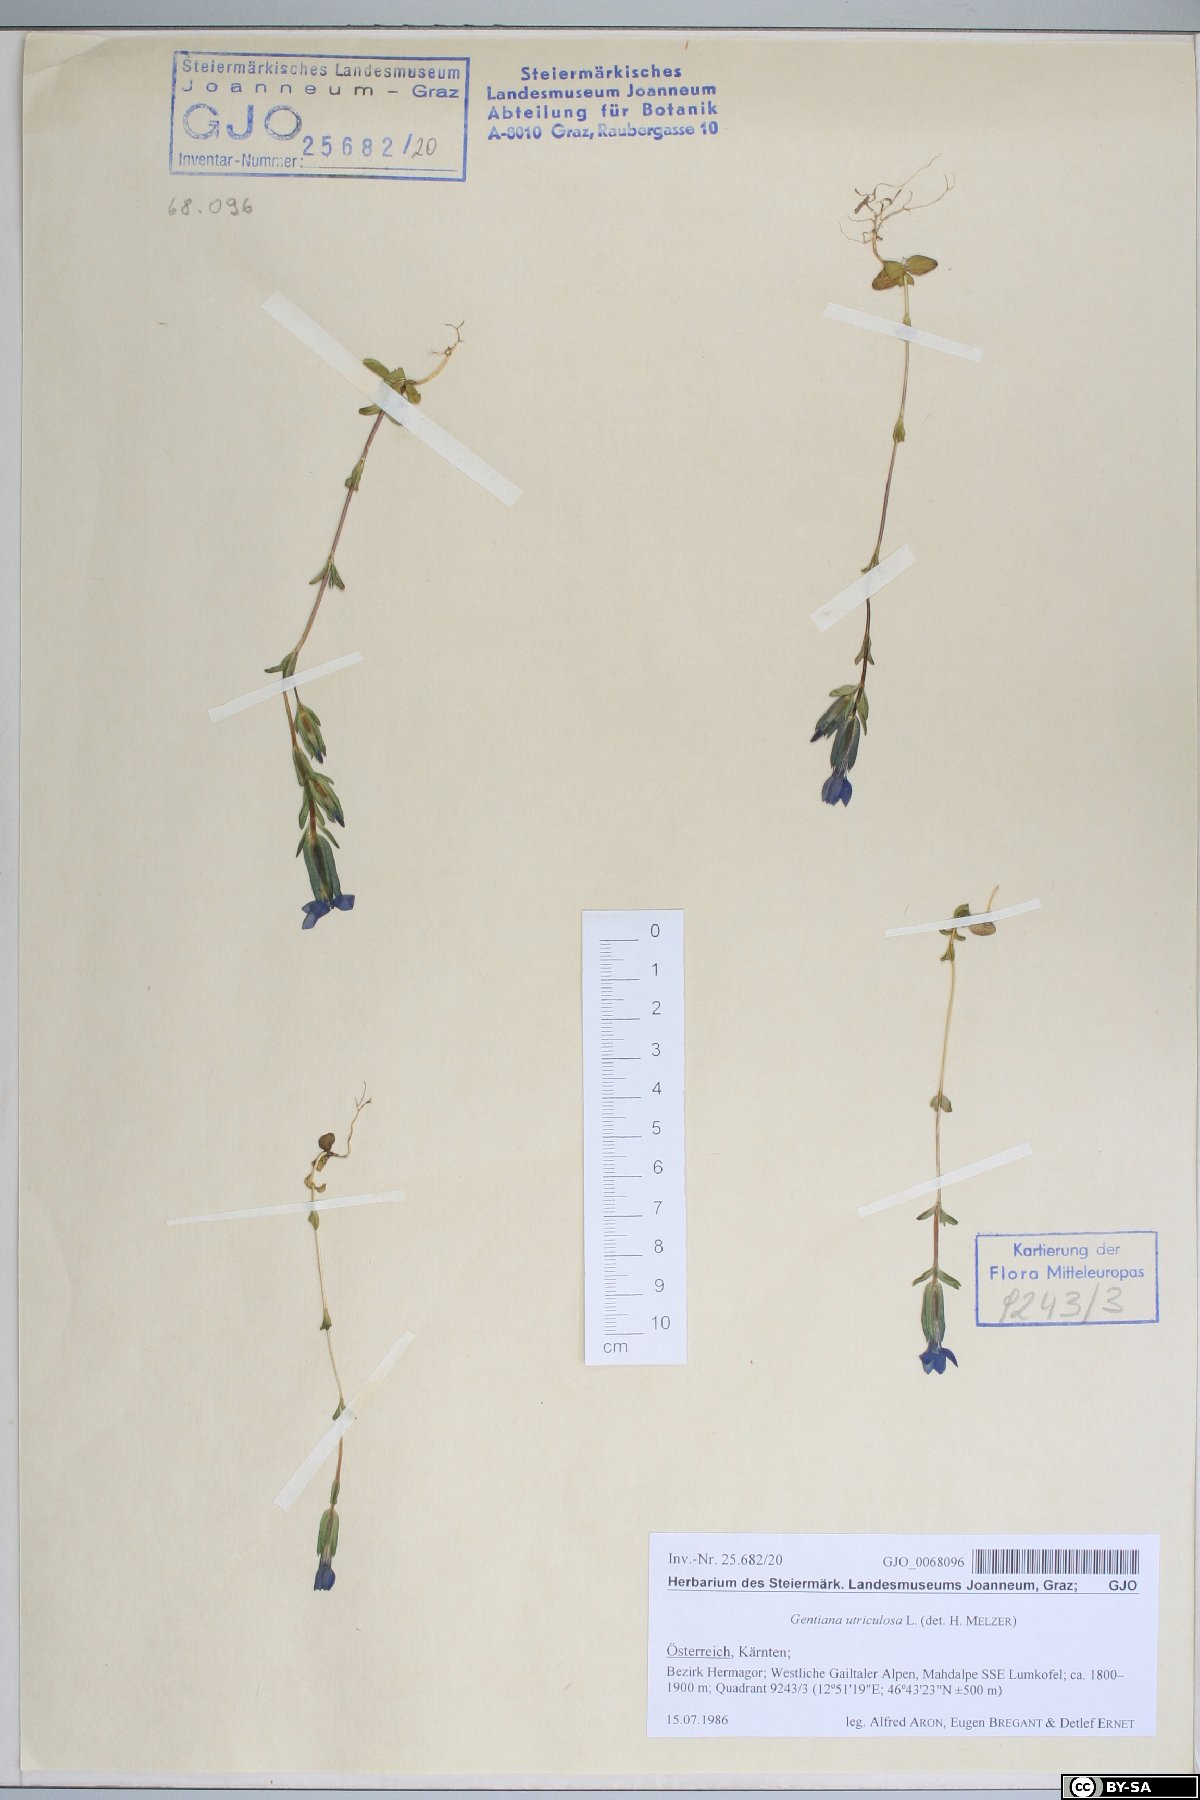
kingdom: Plantae
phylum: Tracheophyta
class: Magnoliopsida
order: Gentianales
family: Gentianaceae
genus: Gentiana
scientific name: Gentiana utriculosa
